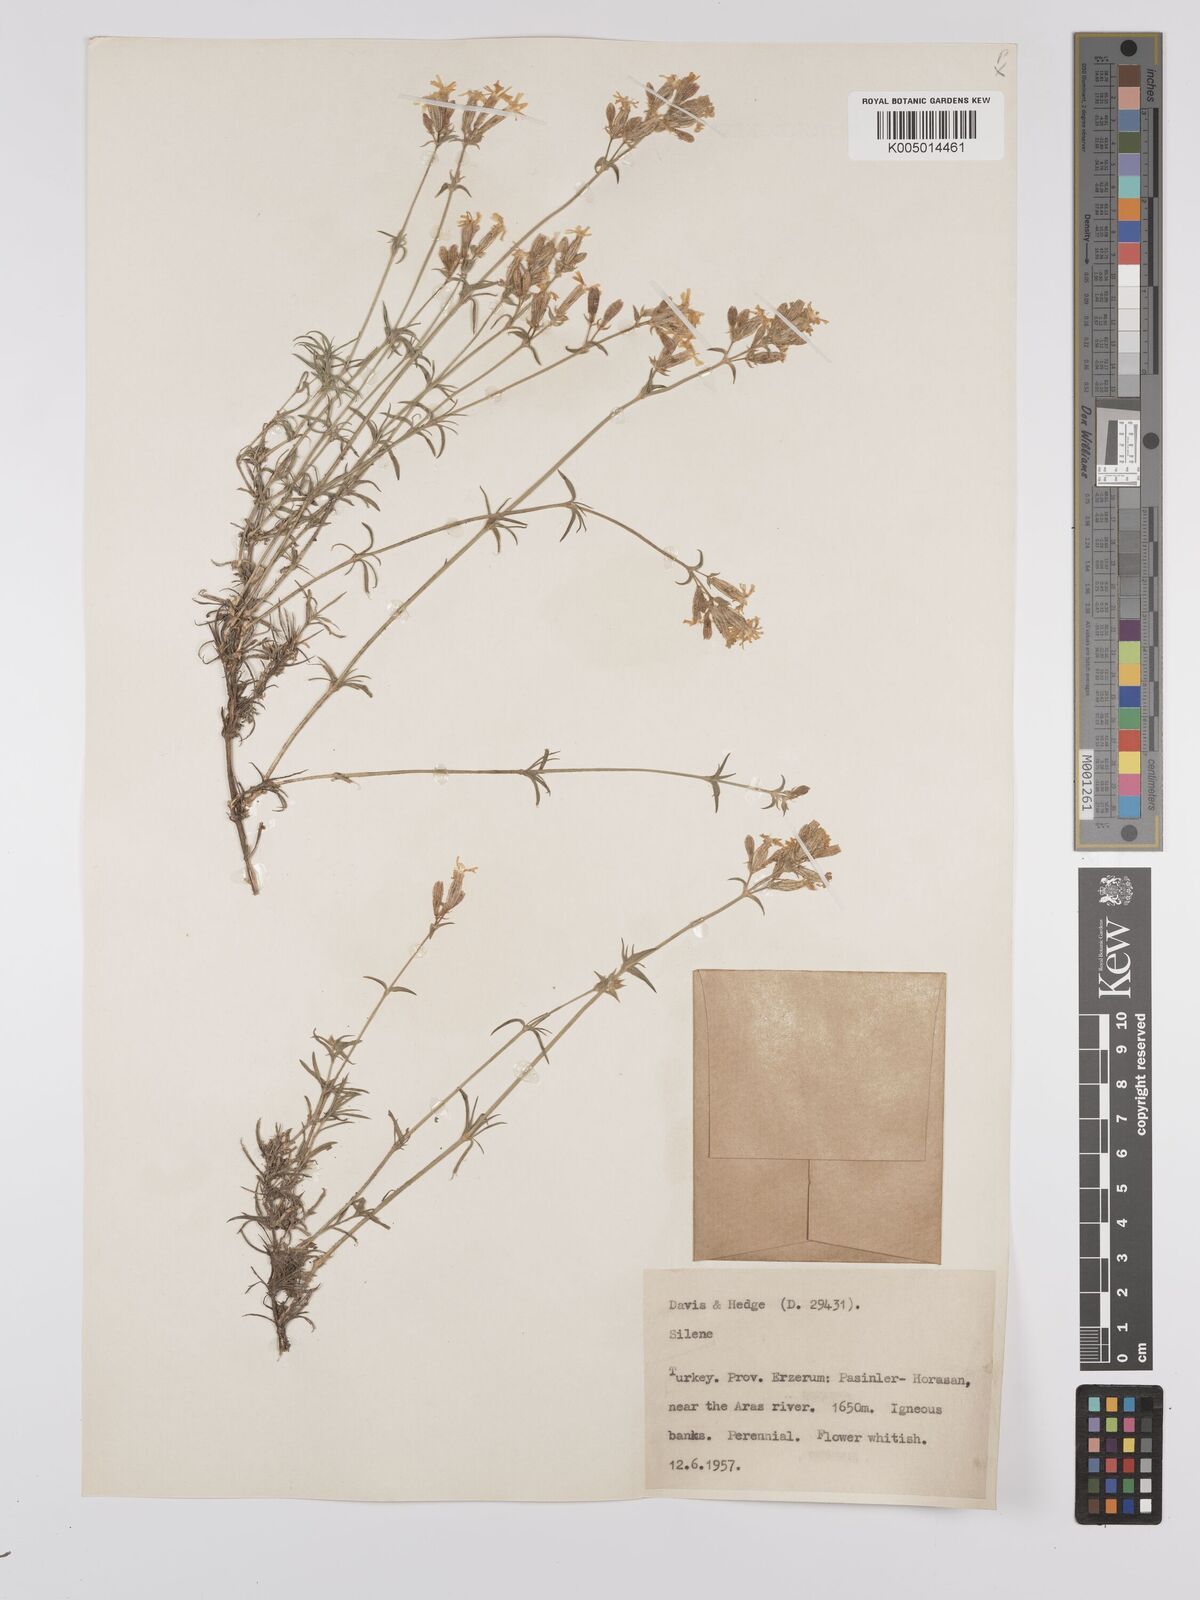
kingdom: Plantae
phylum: Tracheophyta
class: Magnoliopsida
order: Caryophyllales
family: Caryophyllaceae
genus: Silene
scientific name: Silene
